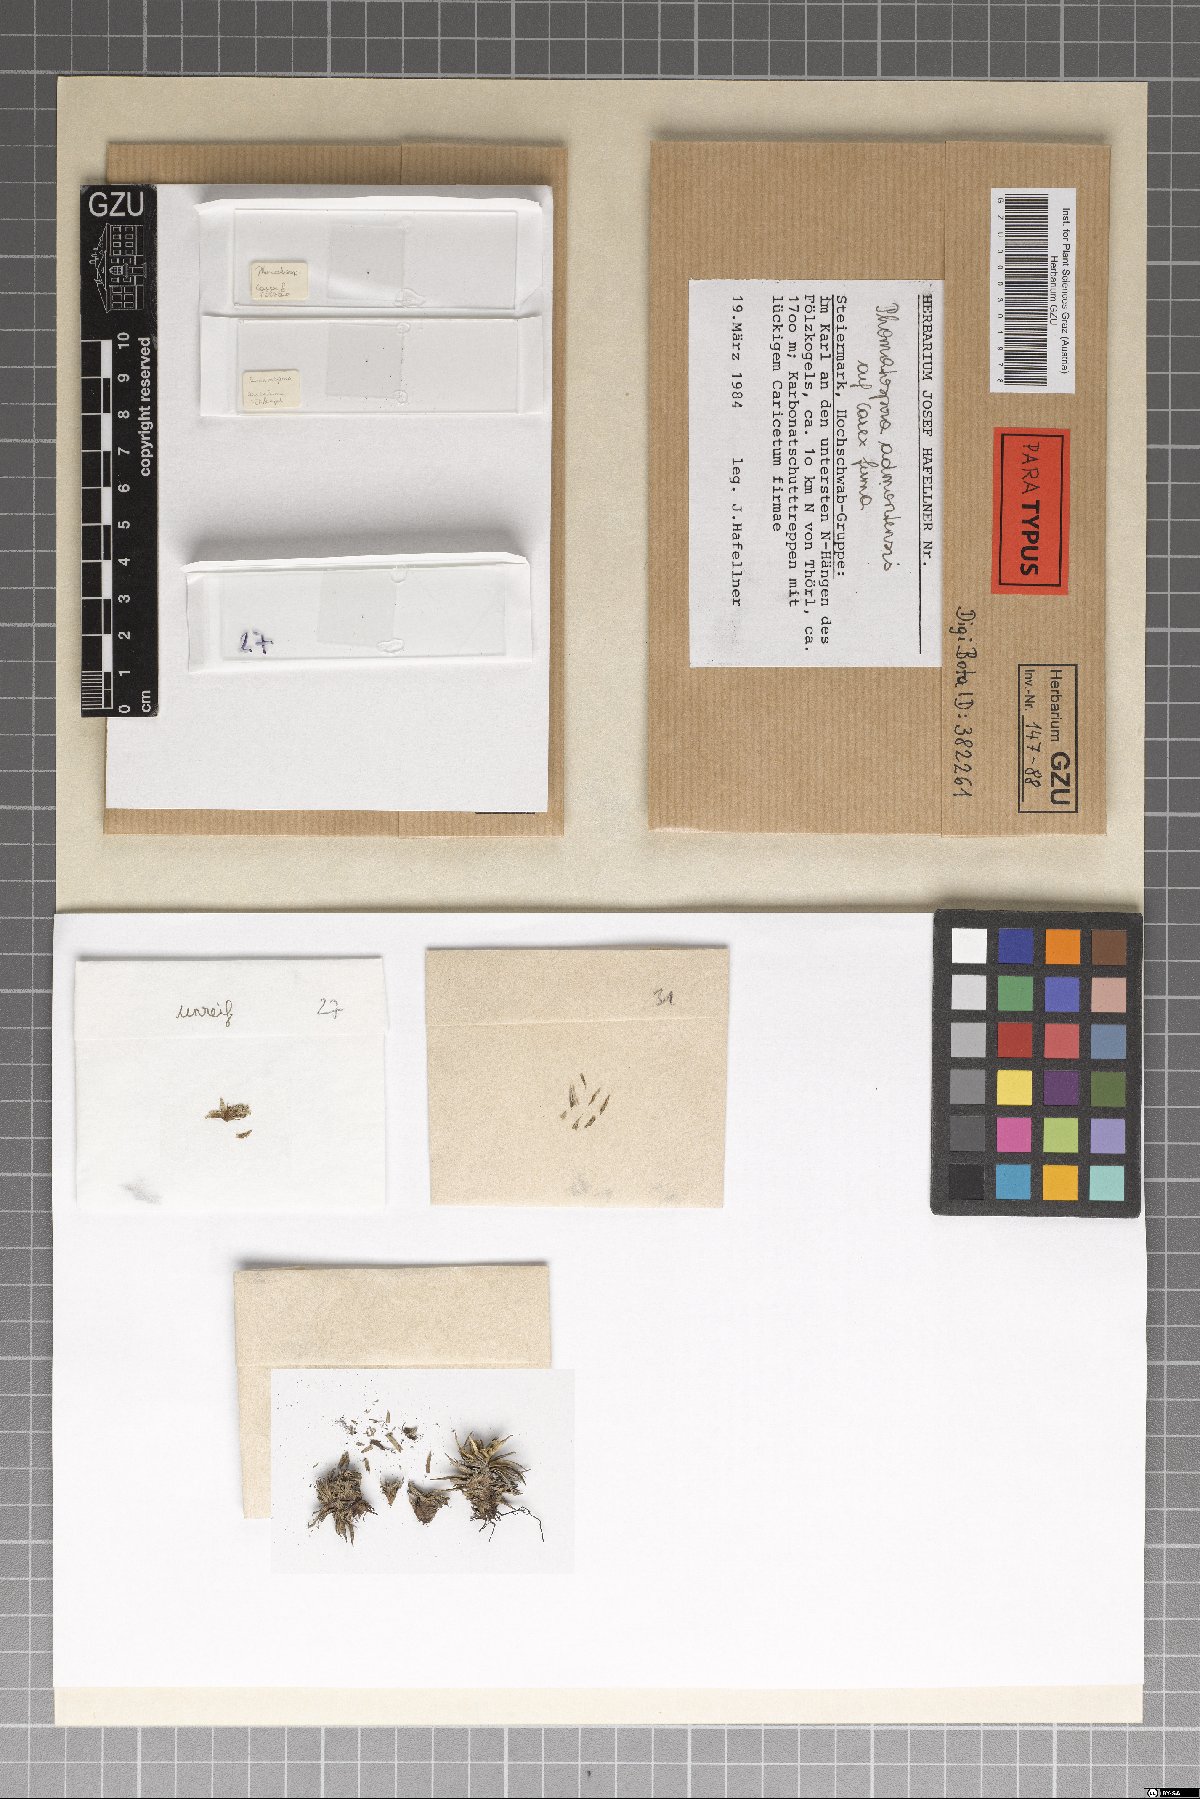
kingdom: Fungi
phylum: Ascomycota
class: Sordariomycetes
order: Phomatosporales
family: Phomatosporaceae
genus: Phomatospora
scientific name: Phomatospora admontensis
